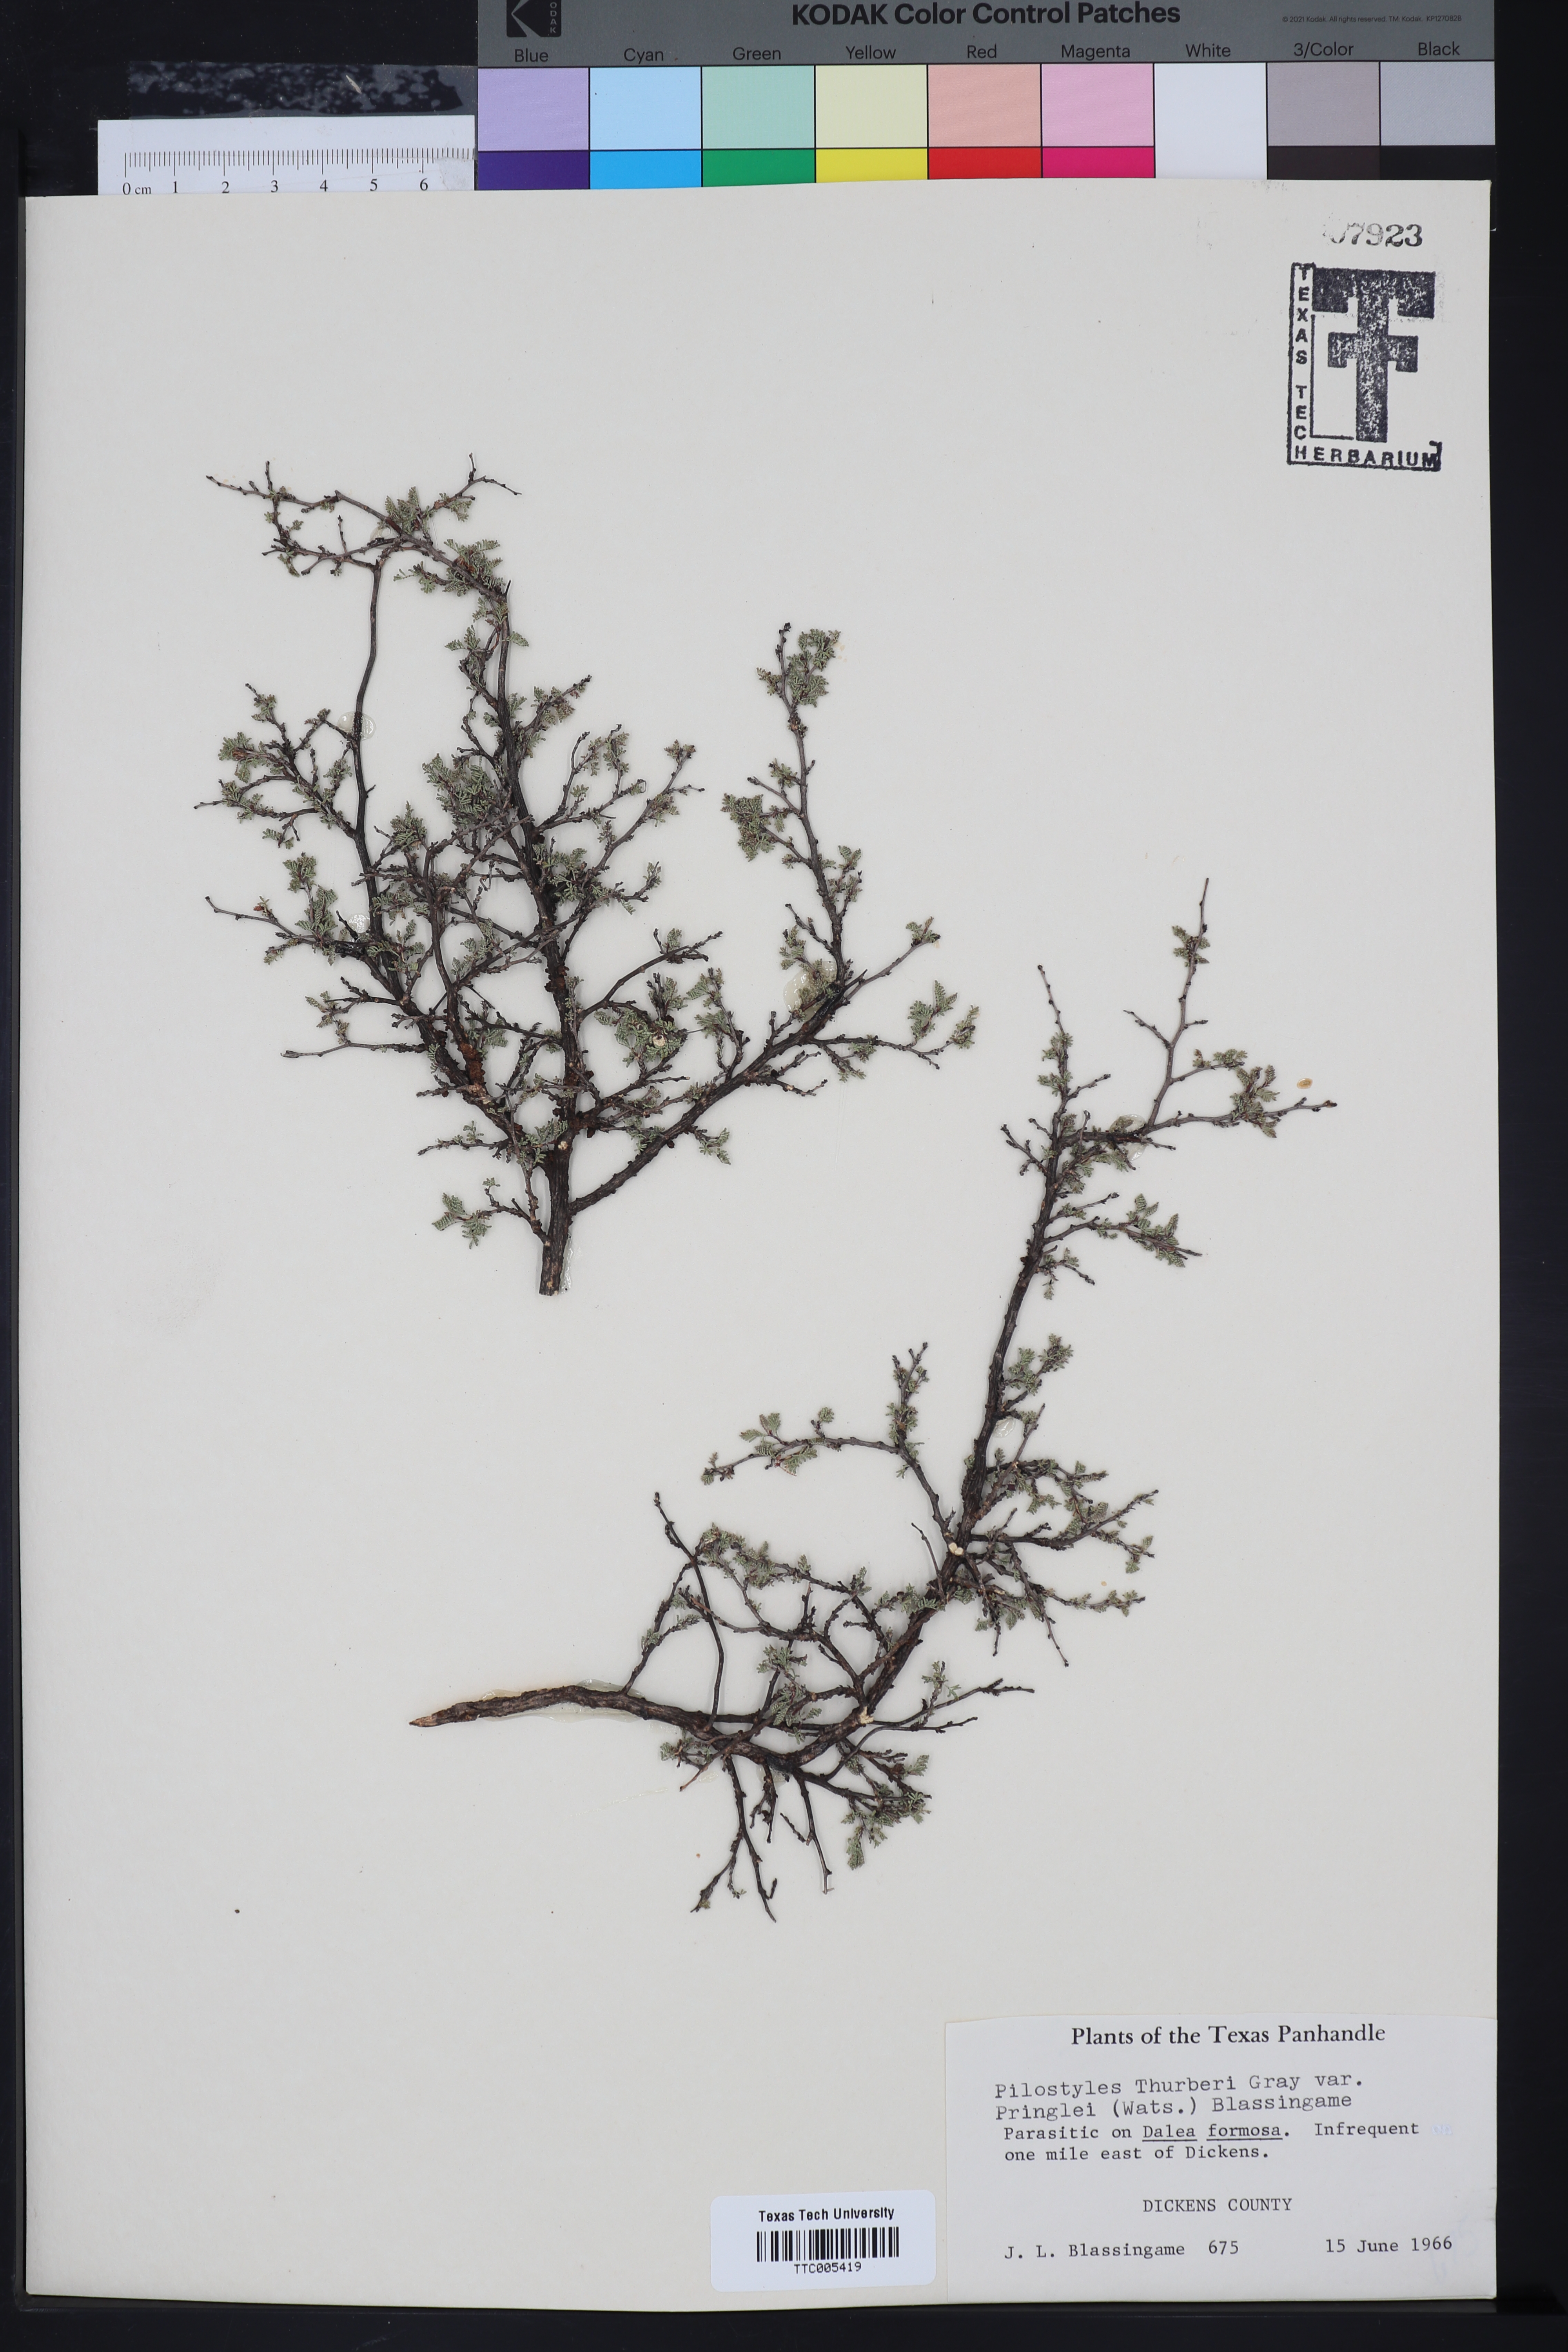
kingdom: Plantae
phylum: Tracheophyta
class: Magnoliopsida
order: Cucurbitales
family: Apodanthaceae
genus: Pilostyles
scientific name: Pilostyles thurberi
